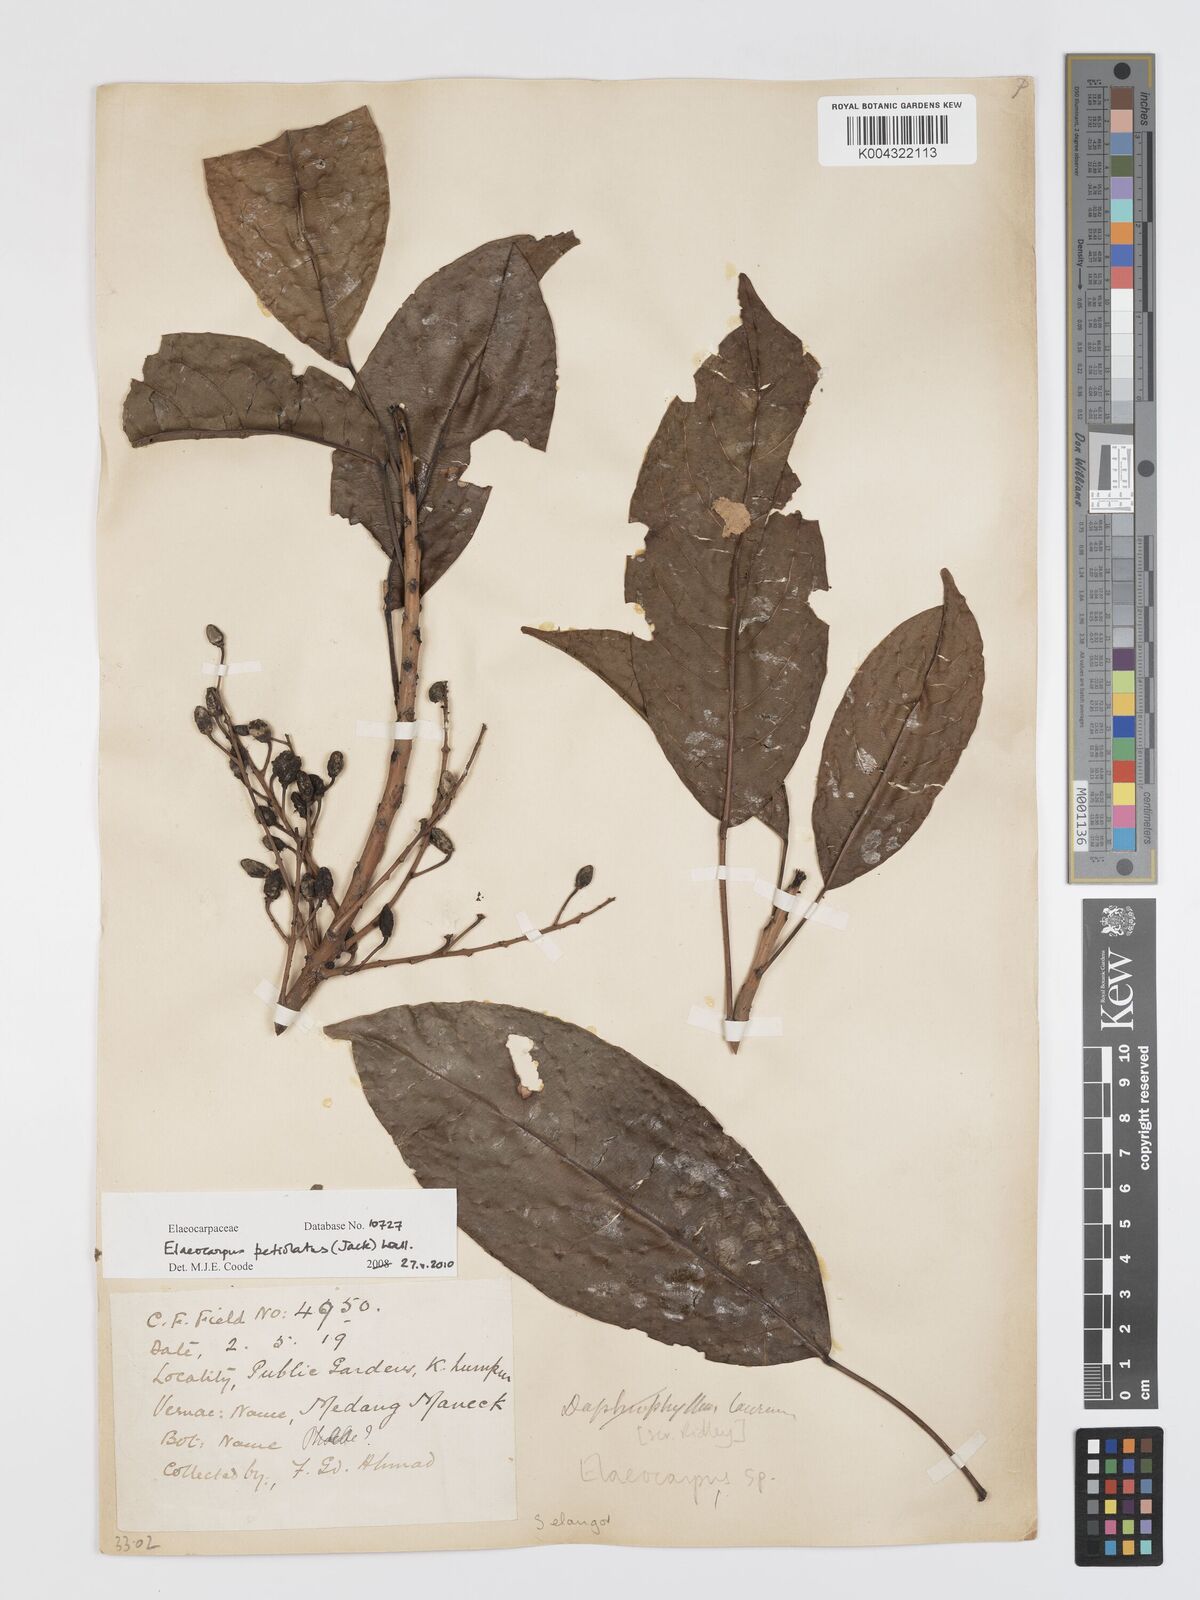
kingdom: Plantae
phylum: Tracheophyta
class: Magnoliopsida
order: Oxalidales
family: Elaeocarpaceae
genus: Elaeocarpus
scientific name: Elaeocarpus petiolatus
